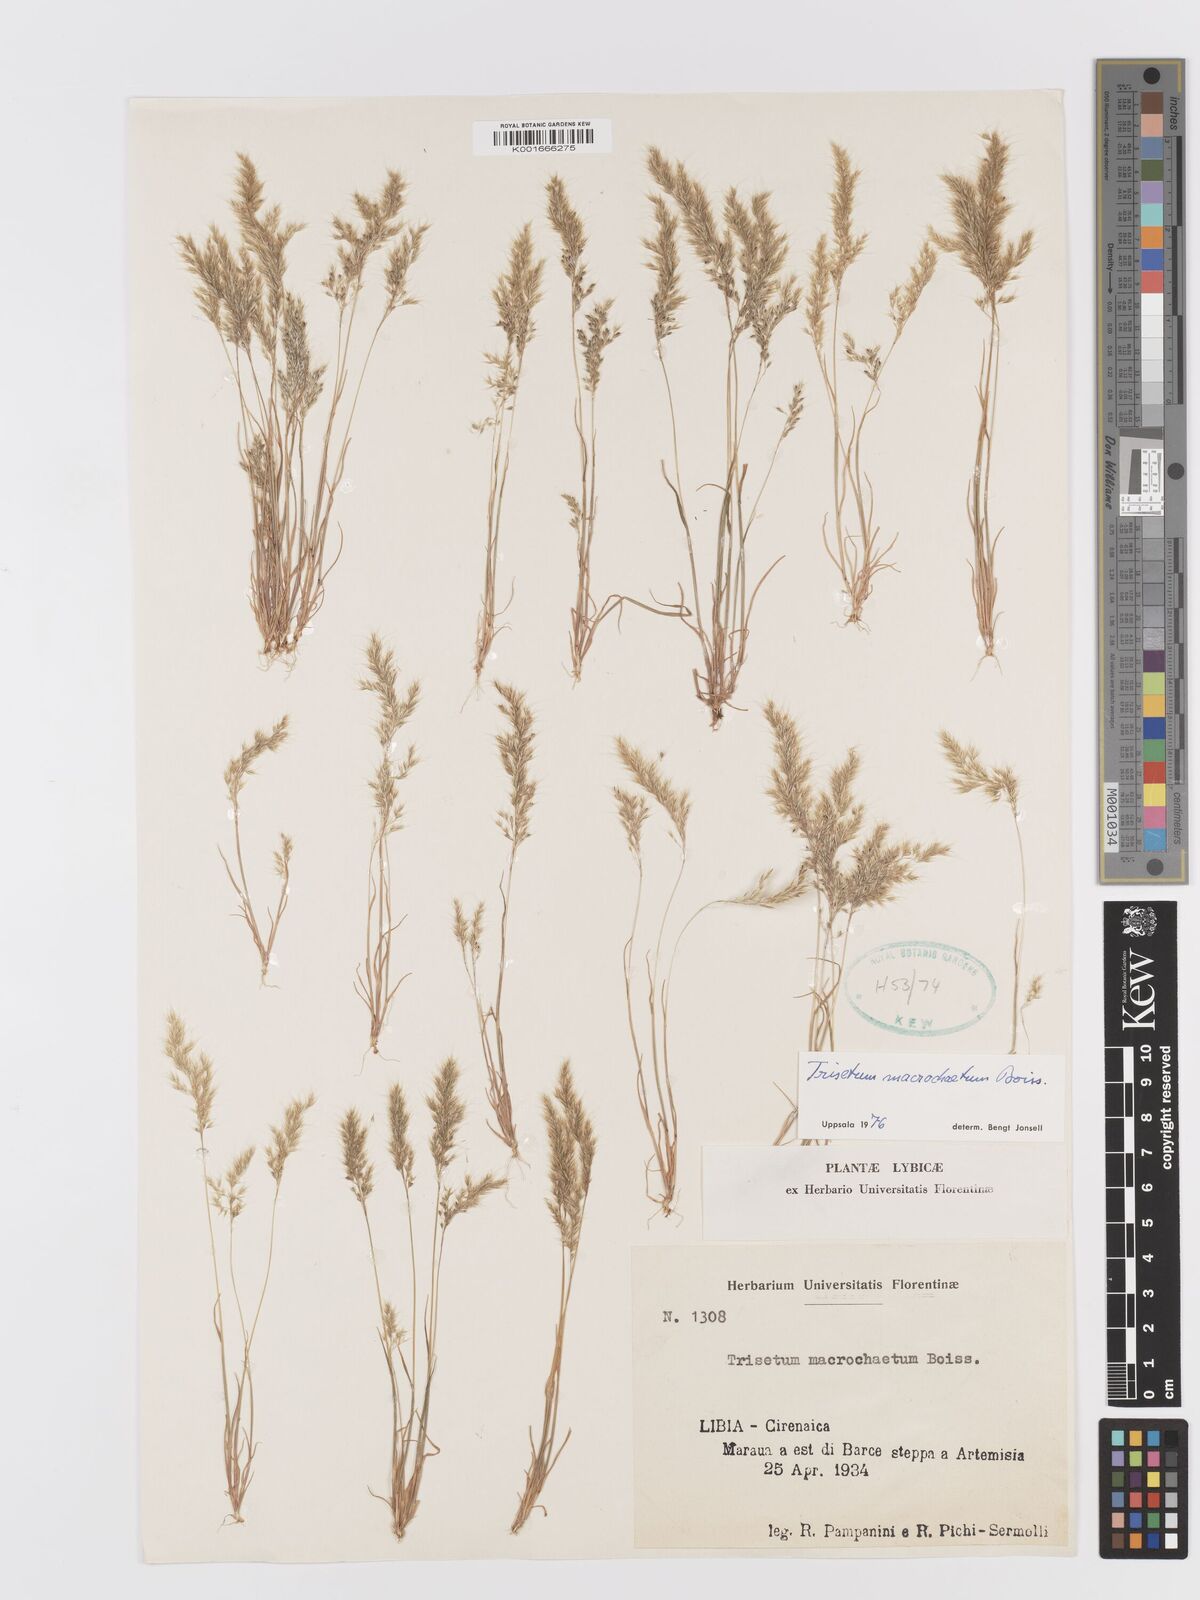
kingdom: Plantae
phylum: Tracheophyta
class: Liliopsida
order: Poales
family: Poaceae
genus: Trisetaria
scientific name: Trisetaria macrochaeta
